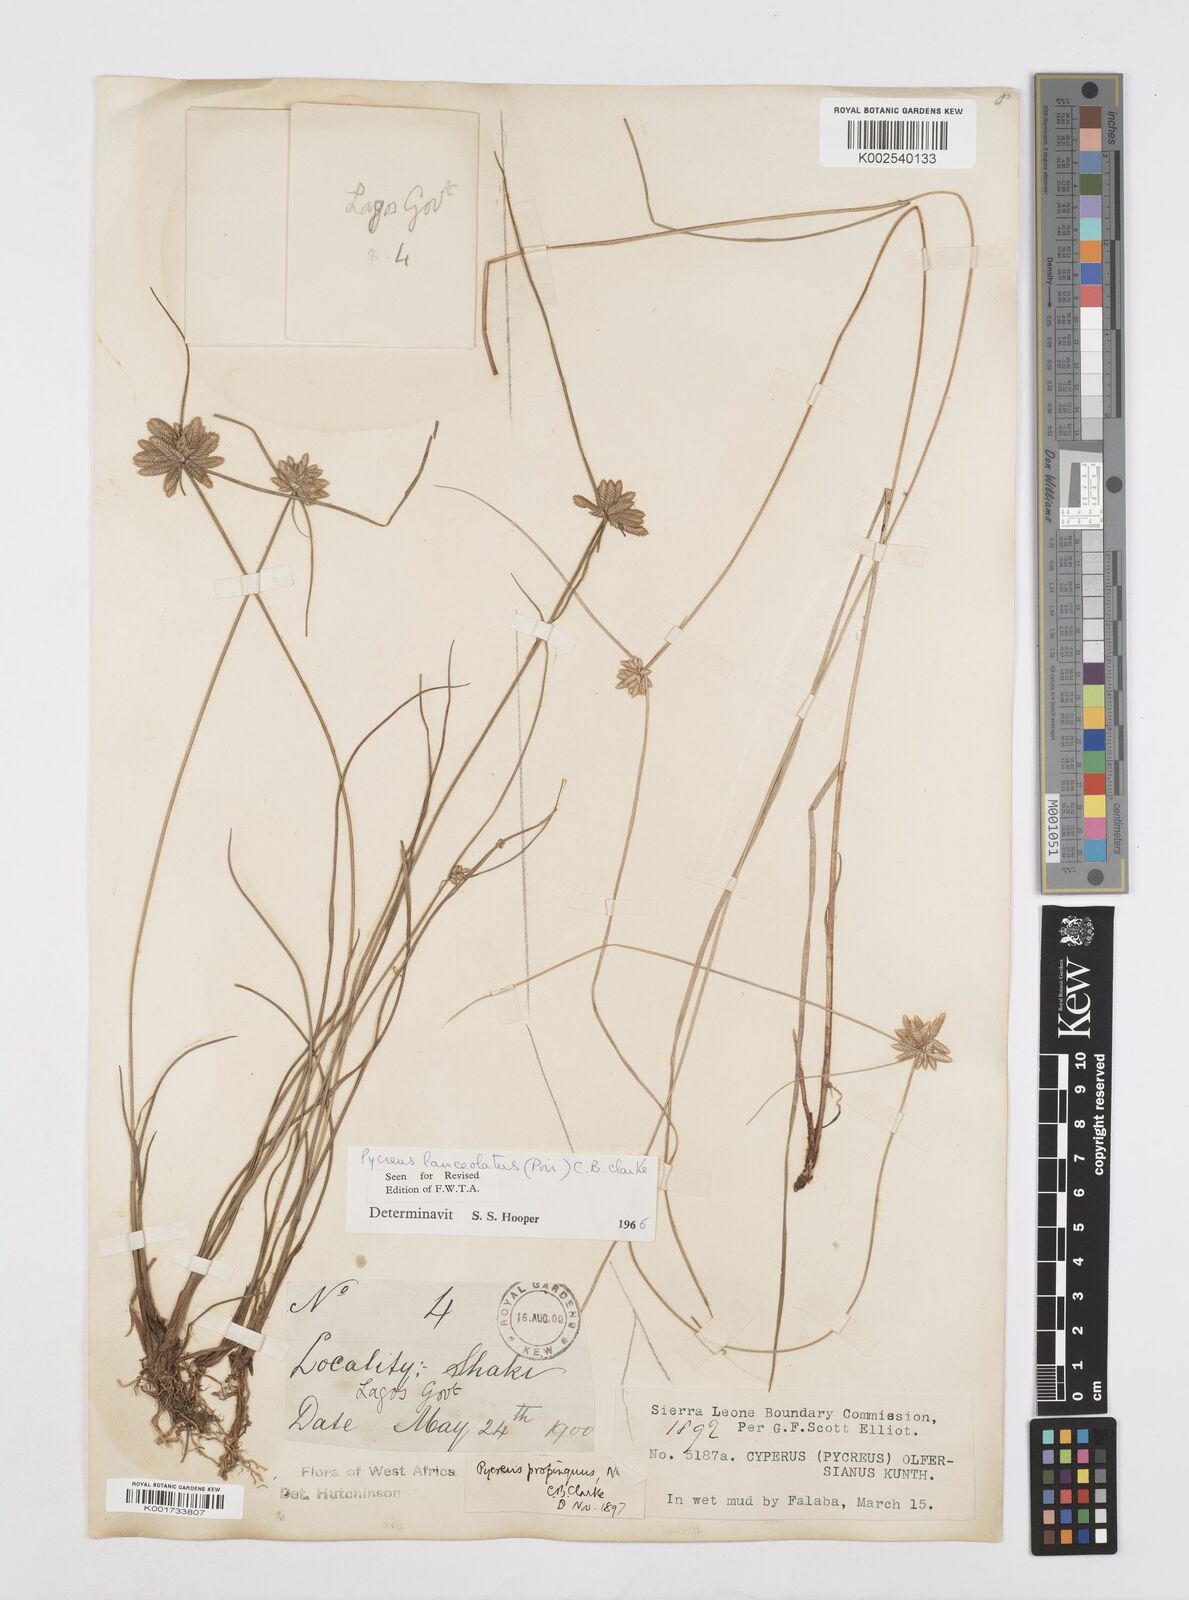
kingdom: Plantae
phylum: Tracheophyta
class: Liliopsida
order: Poales
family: Cyperaceae
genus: Cyperus
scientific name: Cyperus
